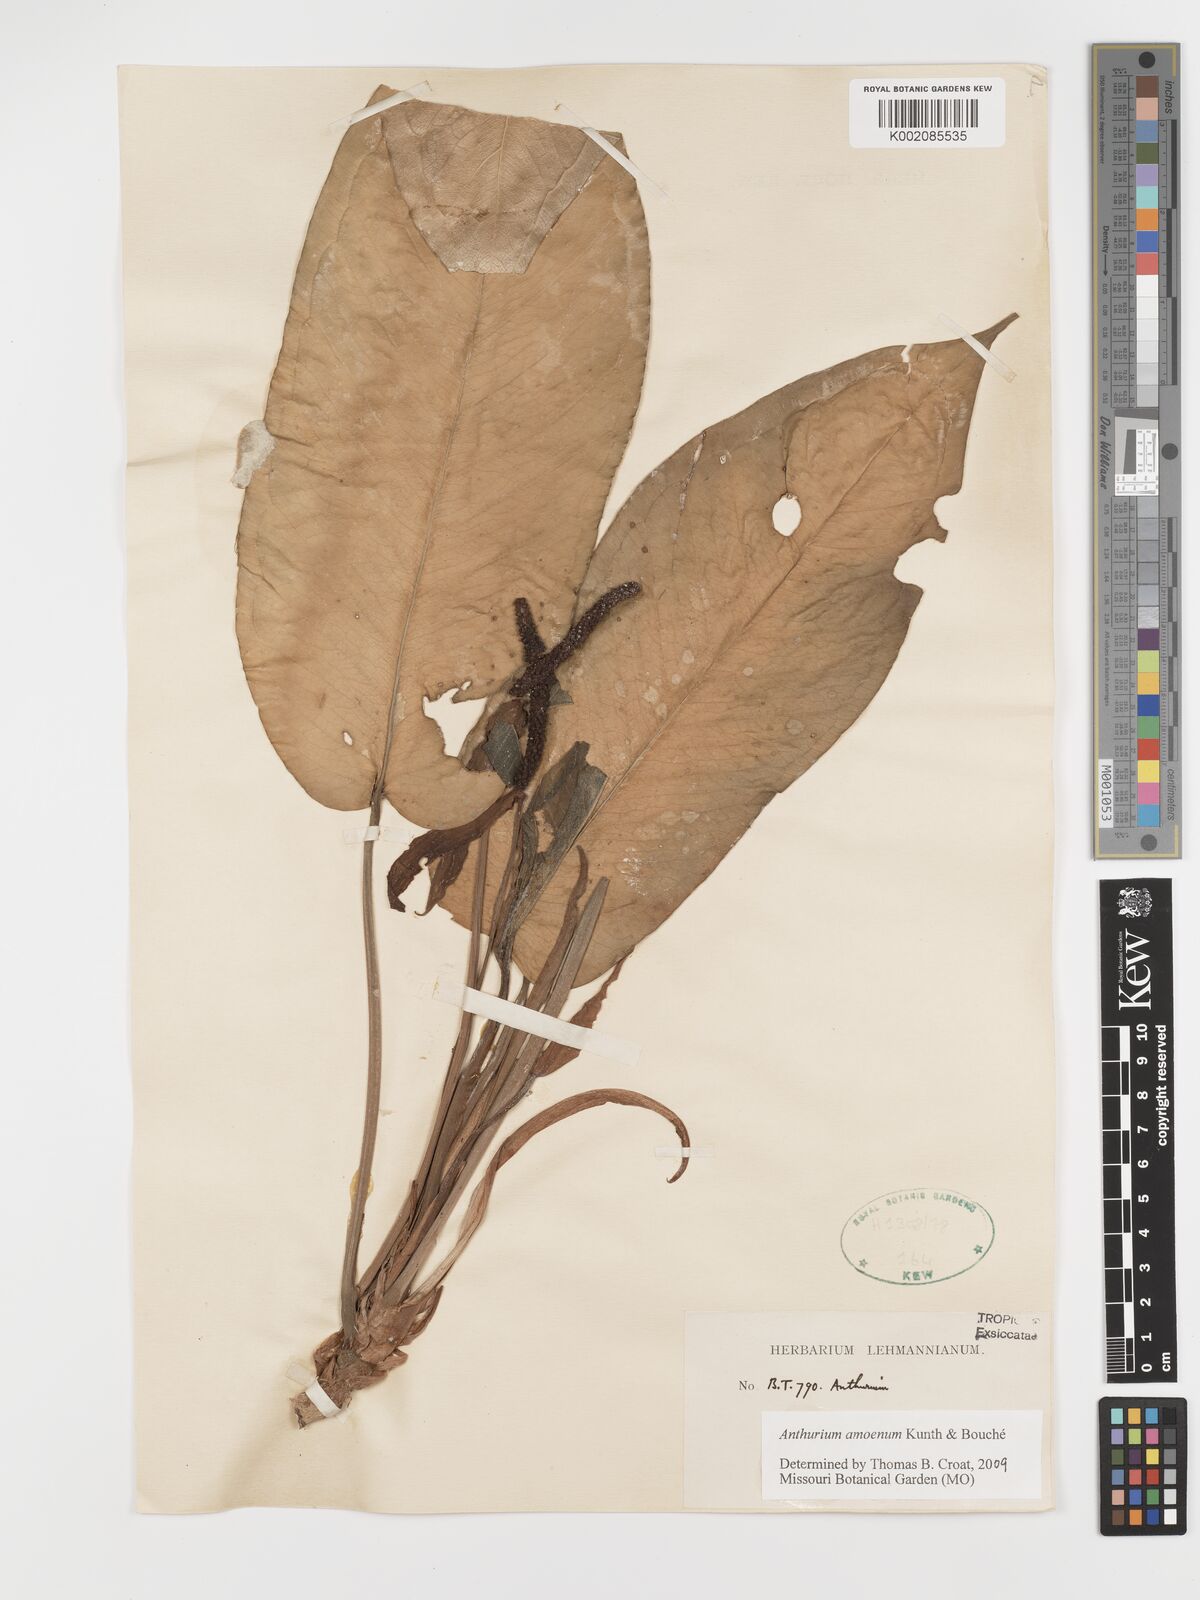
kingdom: Plantae
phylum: Tracheophyta
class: Liliopsida
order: Alismatales
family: Araceae
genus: Anthurium
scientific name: Anthurium amoenum
